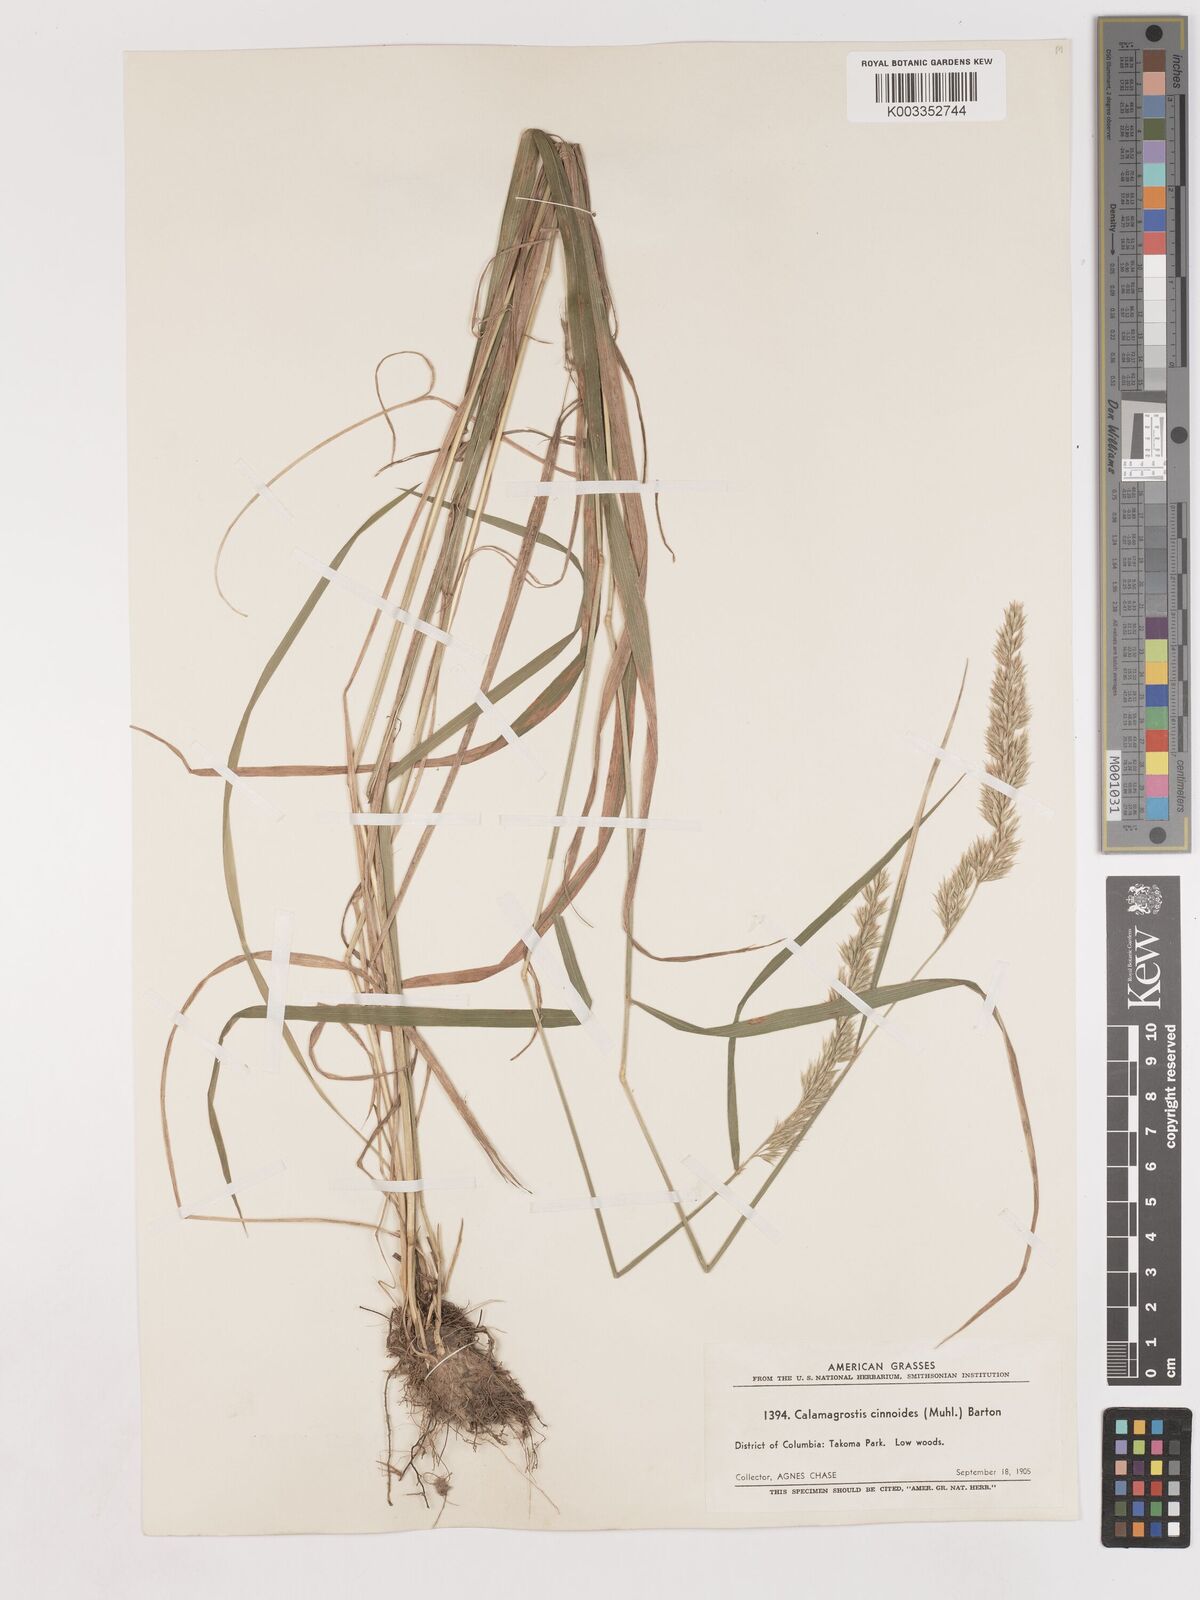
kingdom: Plantae
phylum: Tracheophyta
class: Liliopsida
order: Poales
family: Poaceae
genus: Calamagrostis
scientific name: Calamagrostis canadensis
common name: Canada bluejoint
